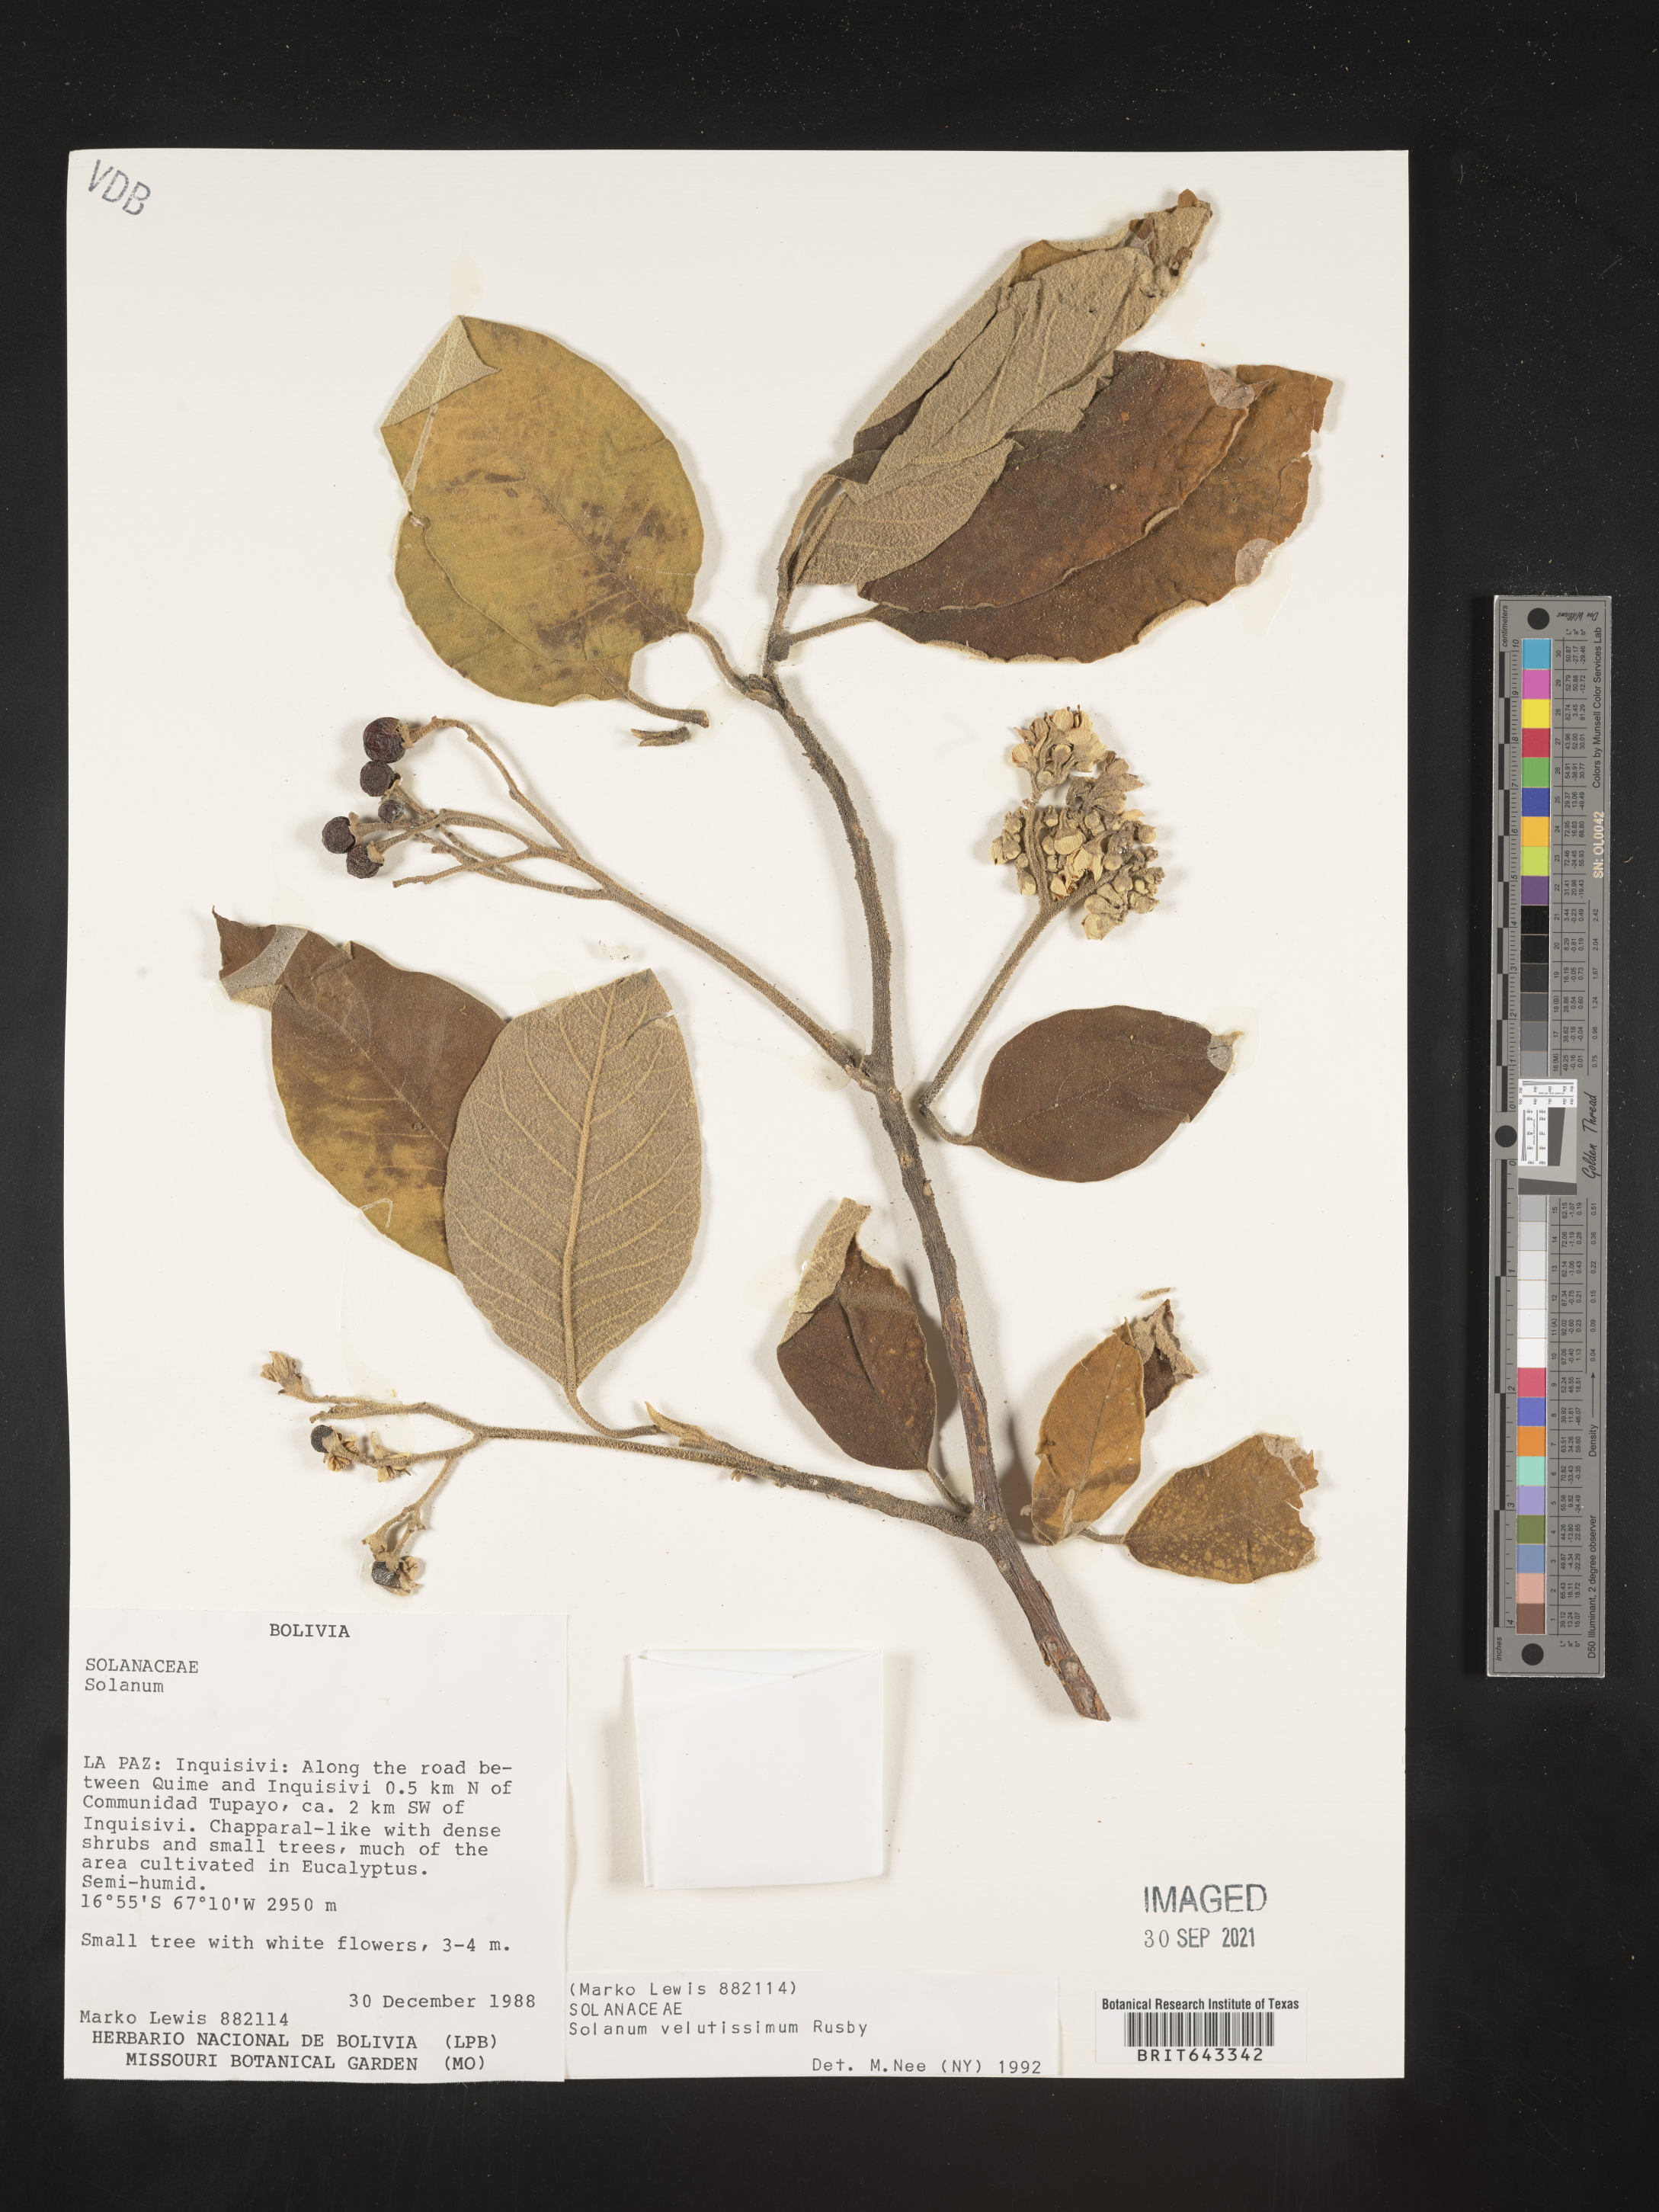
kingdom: Plantae
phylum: Tracheophyta
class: Magnoliopsida
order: Solanales
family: Solanaceae
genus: Solanum
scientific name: Solanum
